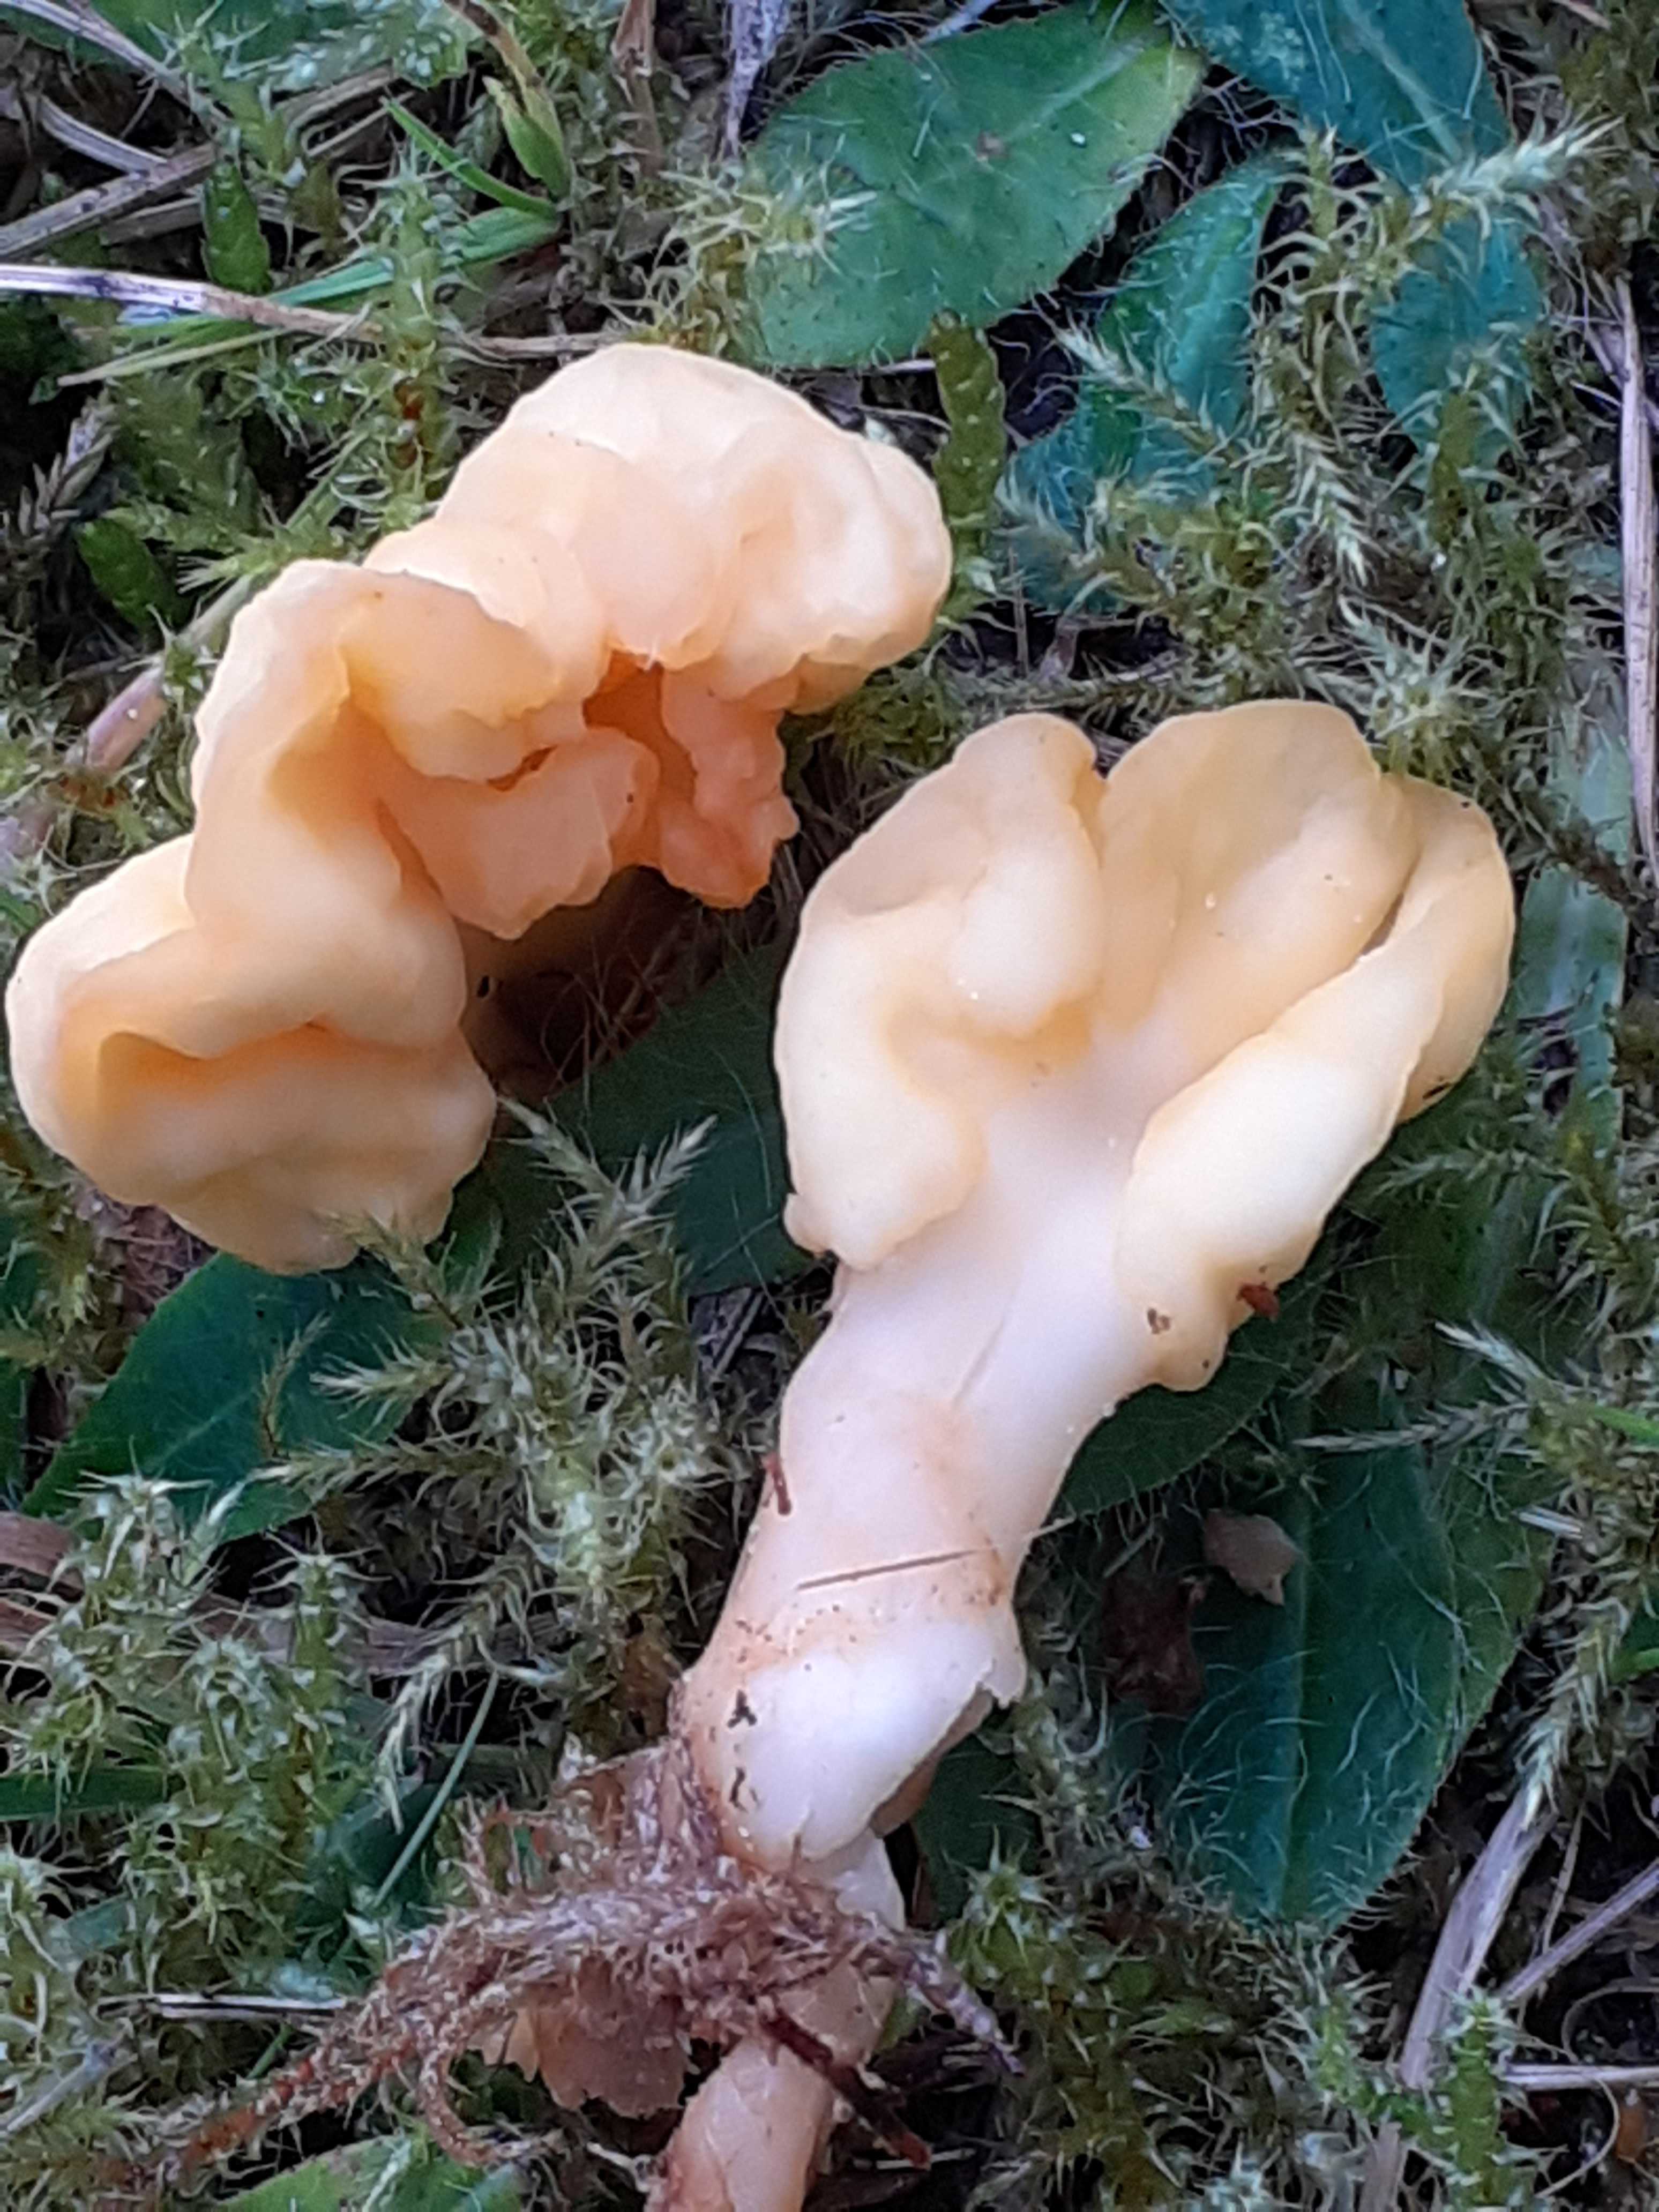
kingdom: Fungi
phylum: Ascomycota
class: Leotiomycetes
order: Rhytismatales
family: Cudoniaceae
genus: Spathularia
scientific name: Spathularia flavida
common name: gul spatelsvamp
